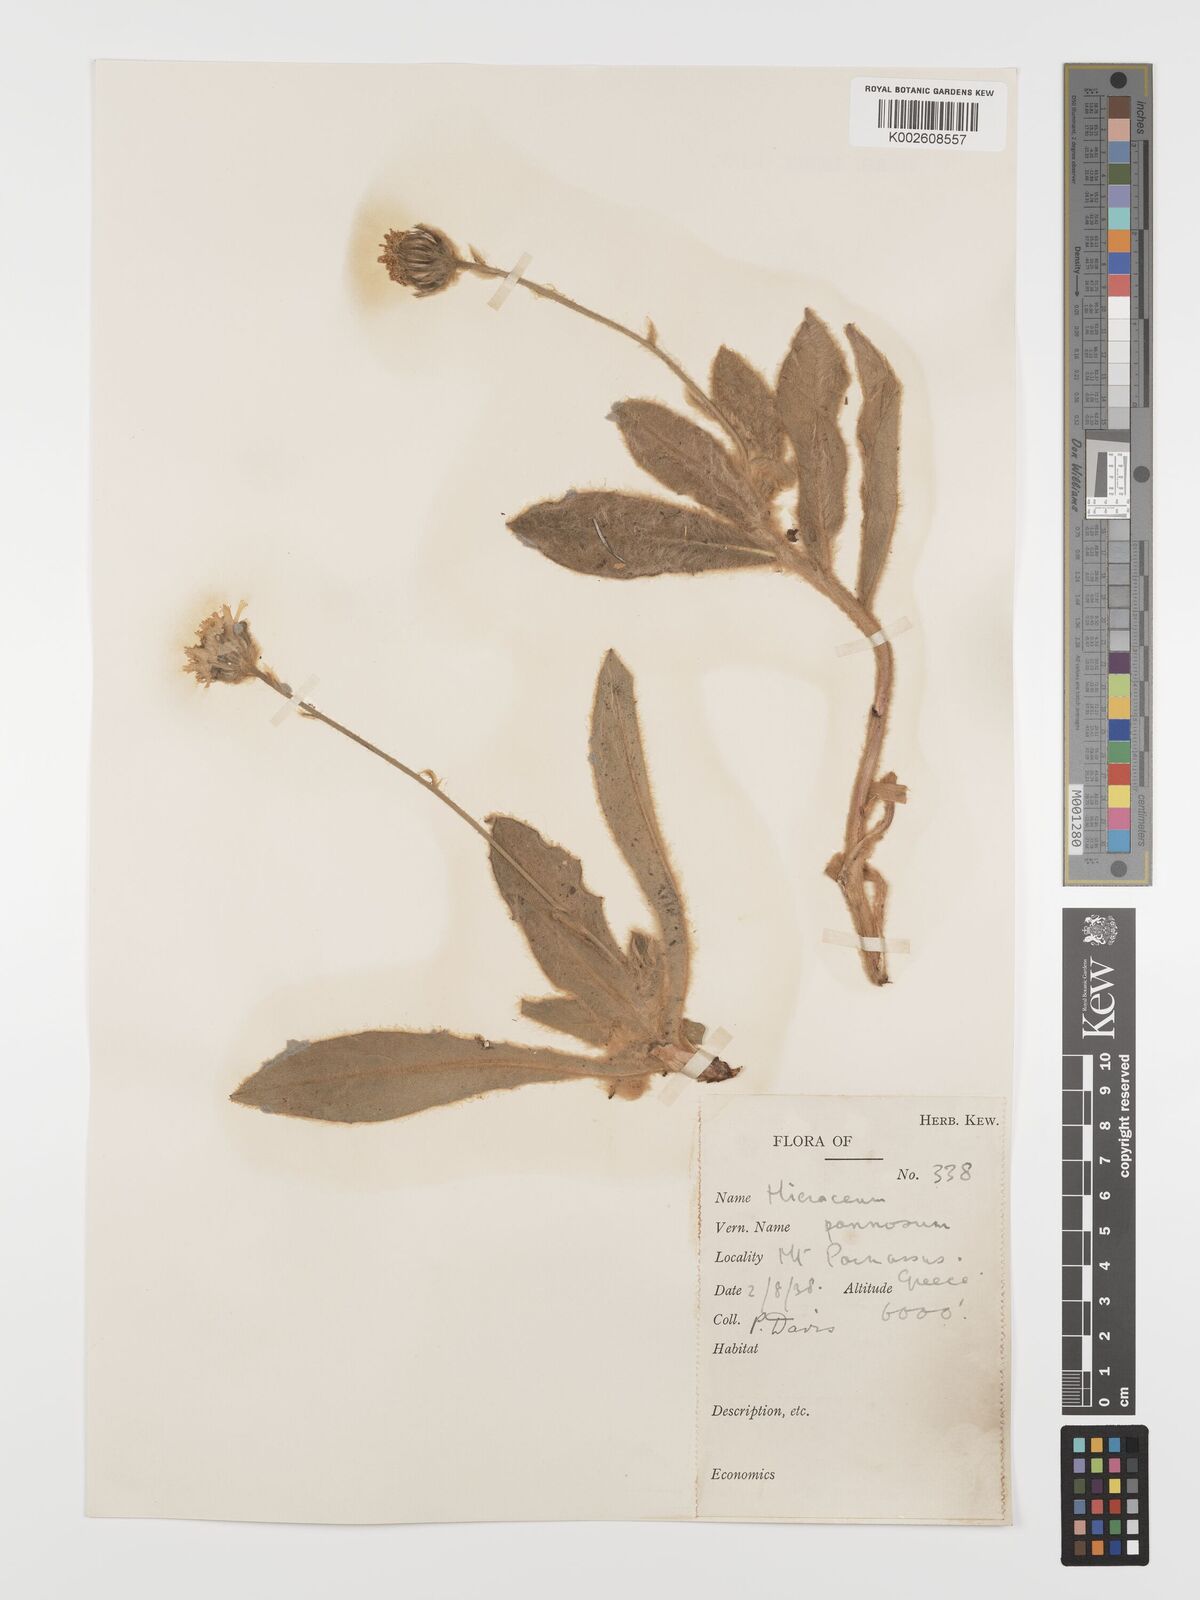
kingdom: Plantae
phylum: Tracheophyta
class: Magnoliopsida
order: Asterales
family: Asteraceae
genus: Hieracium
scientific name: Hieracium pannosum
